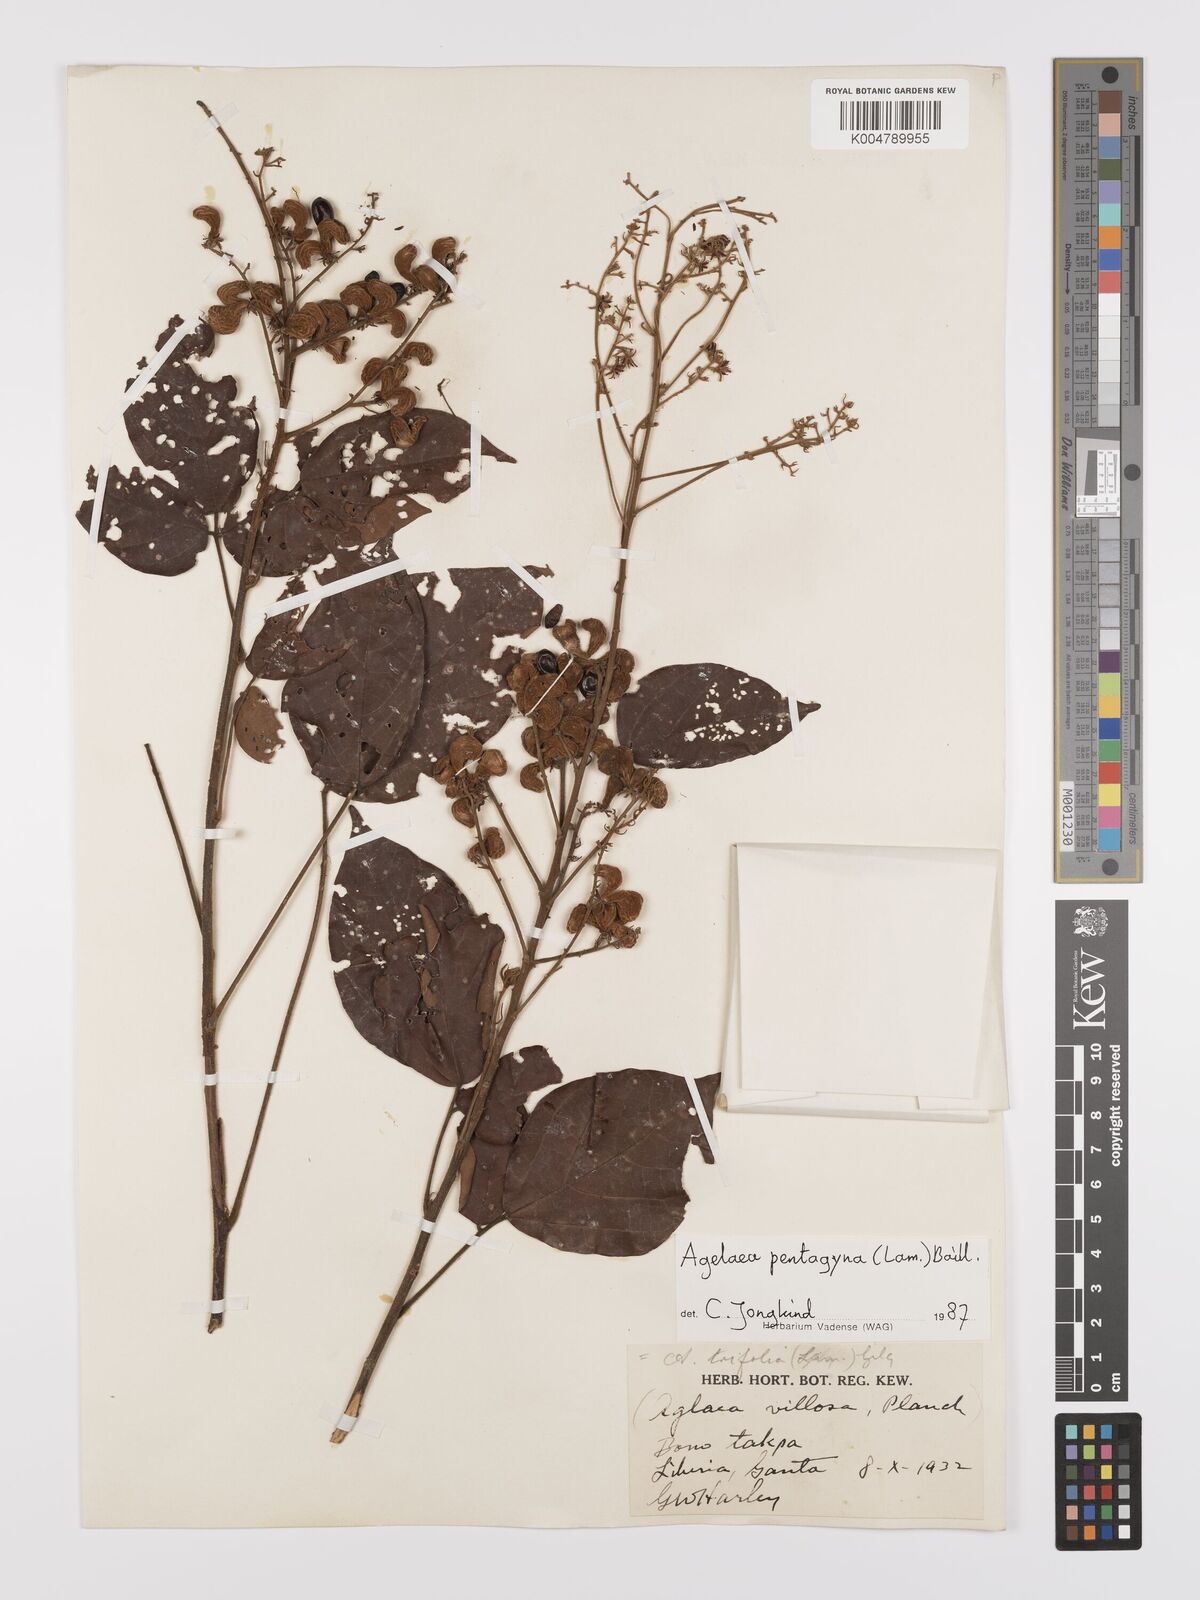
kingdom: Plantae
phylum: Tracheophyta
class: Magnoliopsida
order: Oxalidales
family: Connaraceae
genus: Agelaea
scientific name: Agelaea pentagyna
